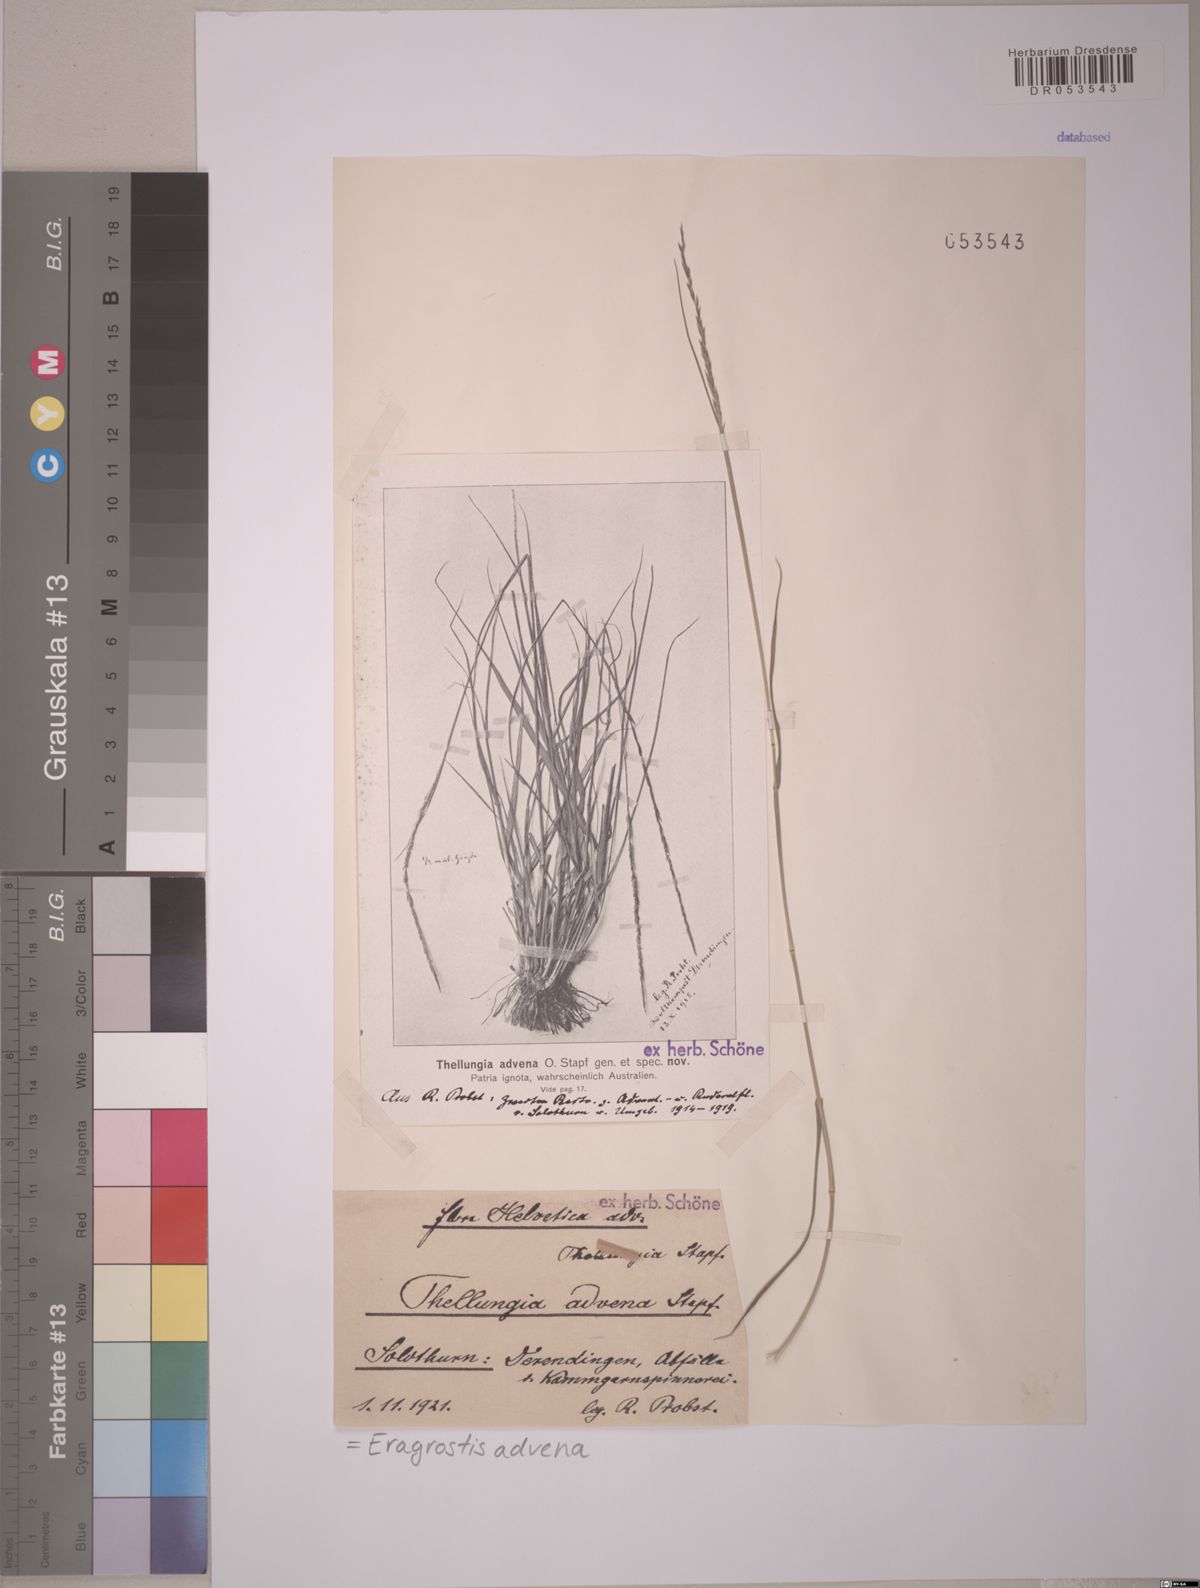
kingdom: Plantae
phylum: Tracheophyta
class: Liliopsida
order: Poales
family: Poaceae
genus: Sporobolus
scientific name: Sporobolus advenus
